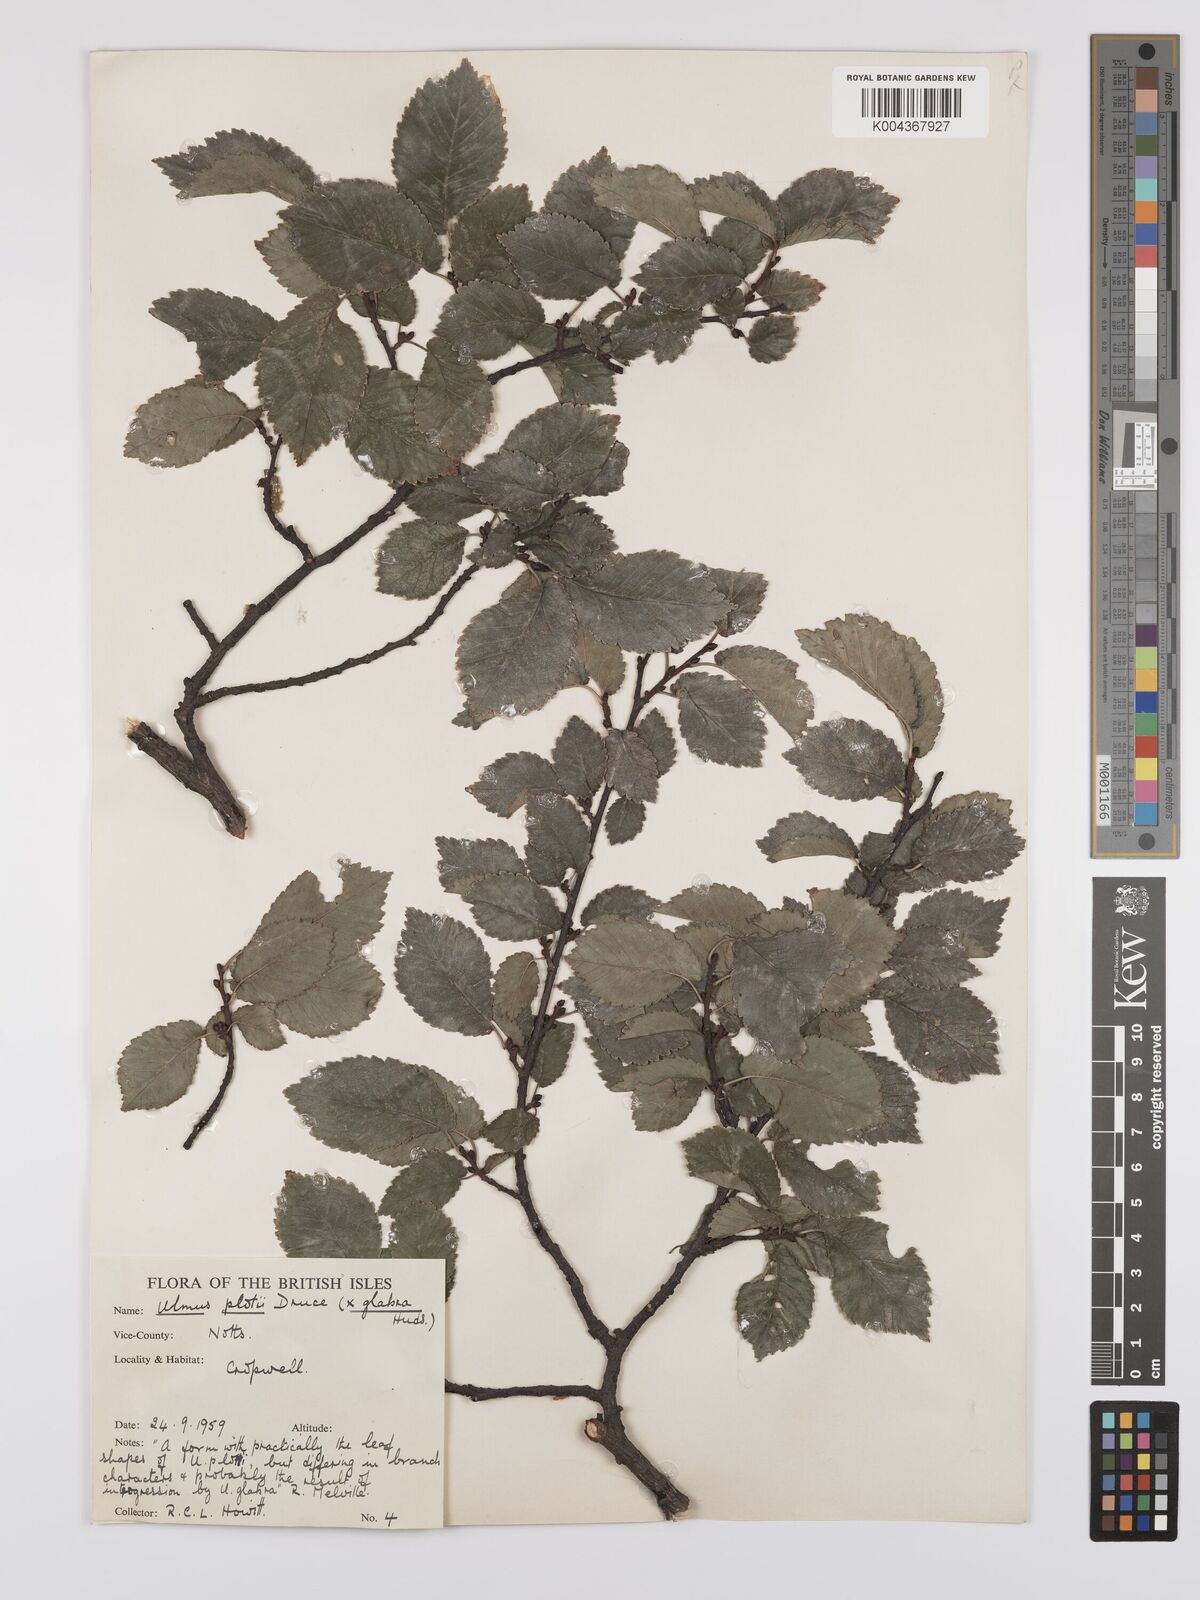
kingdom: Plantae
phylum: Tracheophyta
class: Magnoliopsida
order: Rosales
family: Ulmaceae
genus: Ulmus
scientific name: Ulmus
